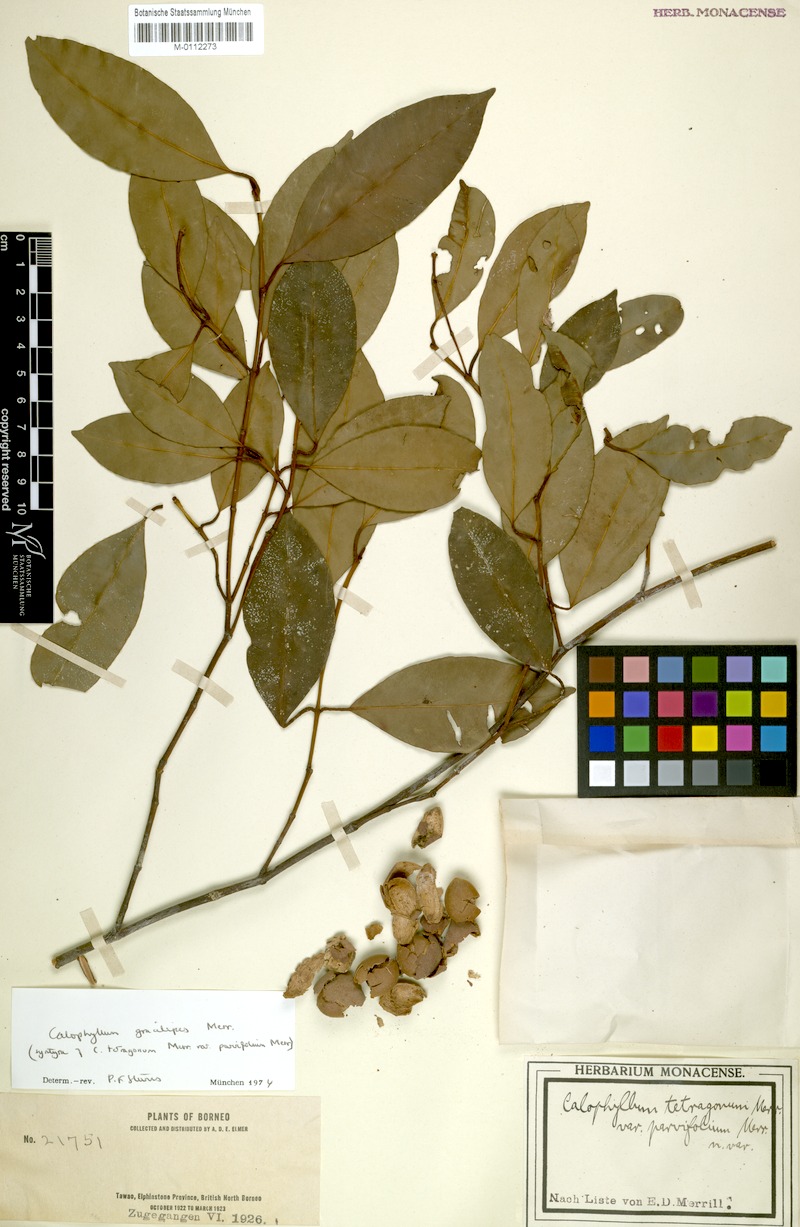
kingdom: Plantae
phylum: Tracheophyta
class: Magnoliopsida
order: Malpighiales
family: Calophyllaceae
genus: Calophyllum
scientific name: Calophyllum gracilipes
